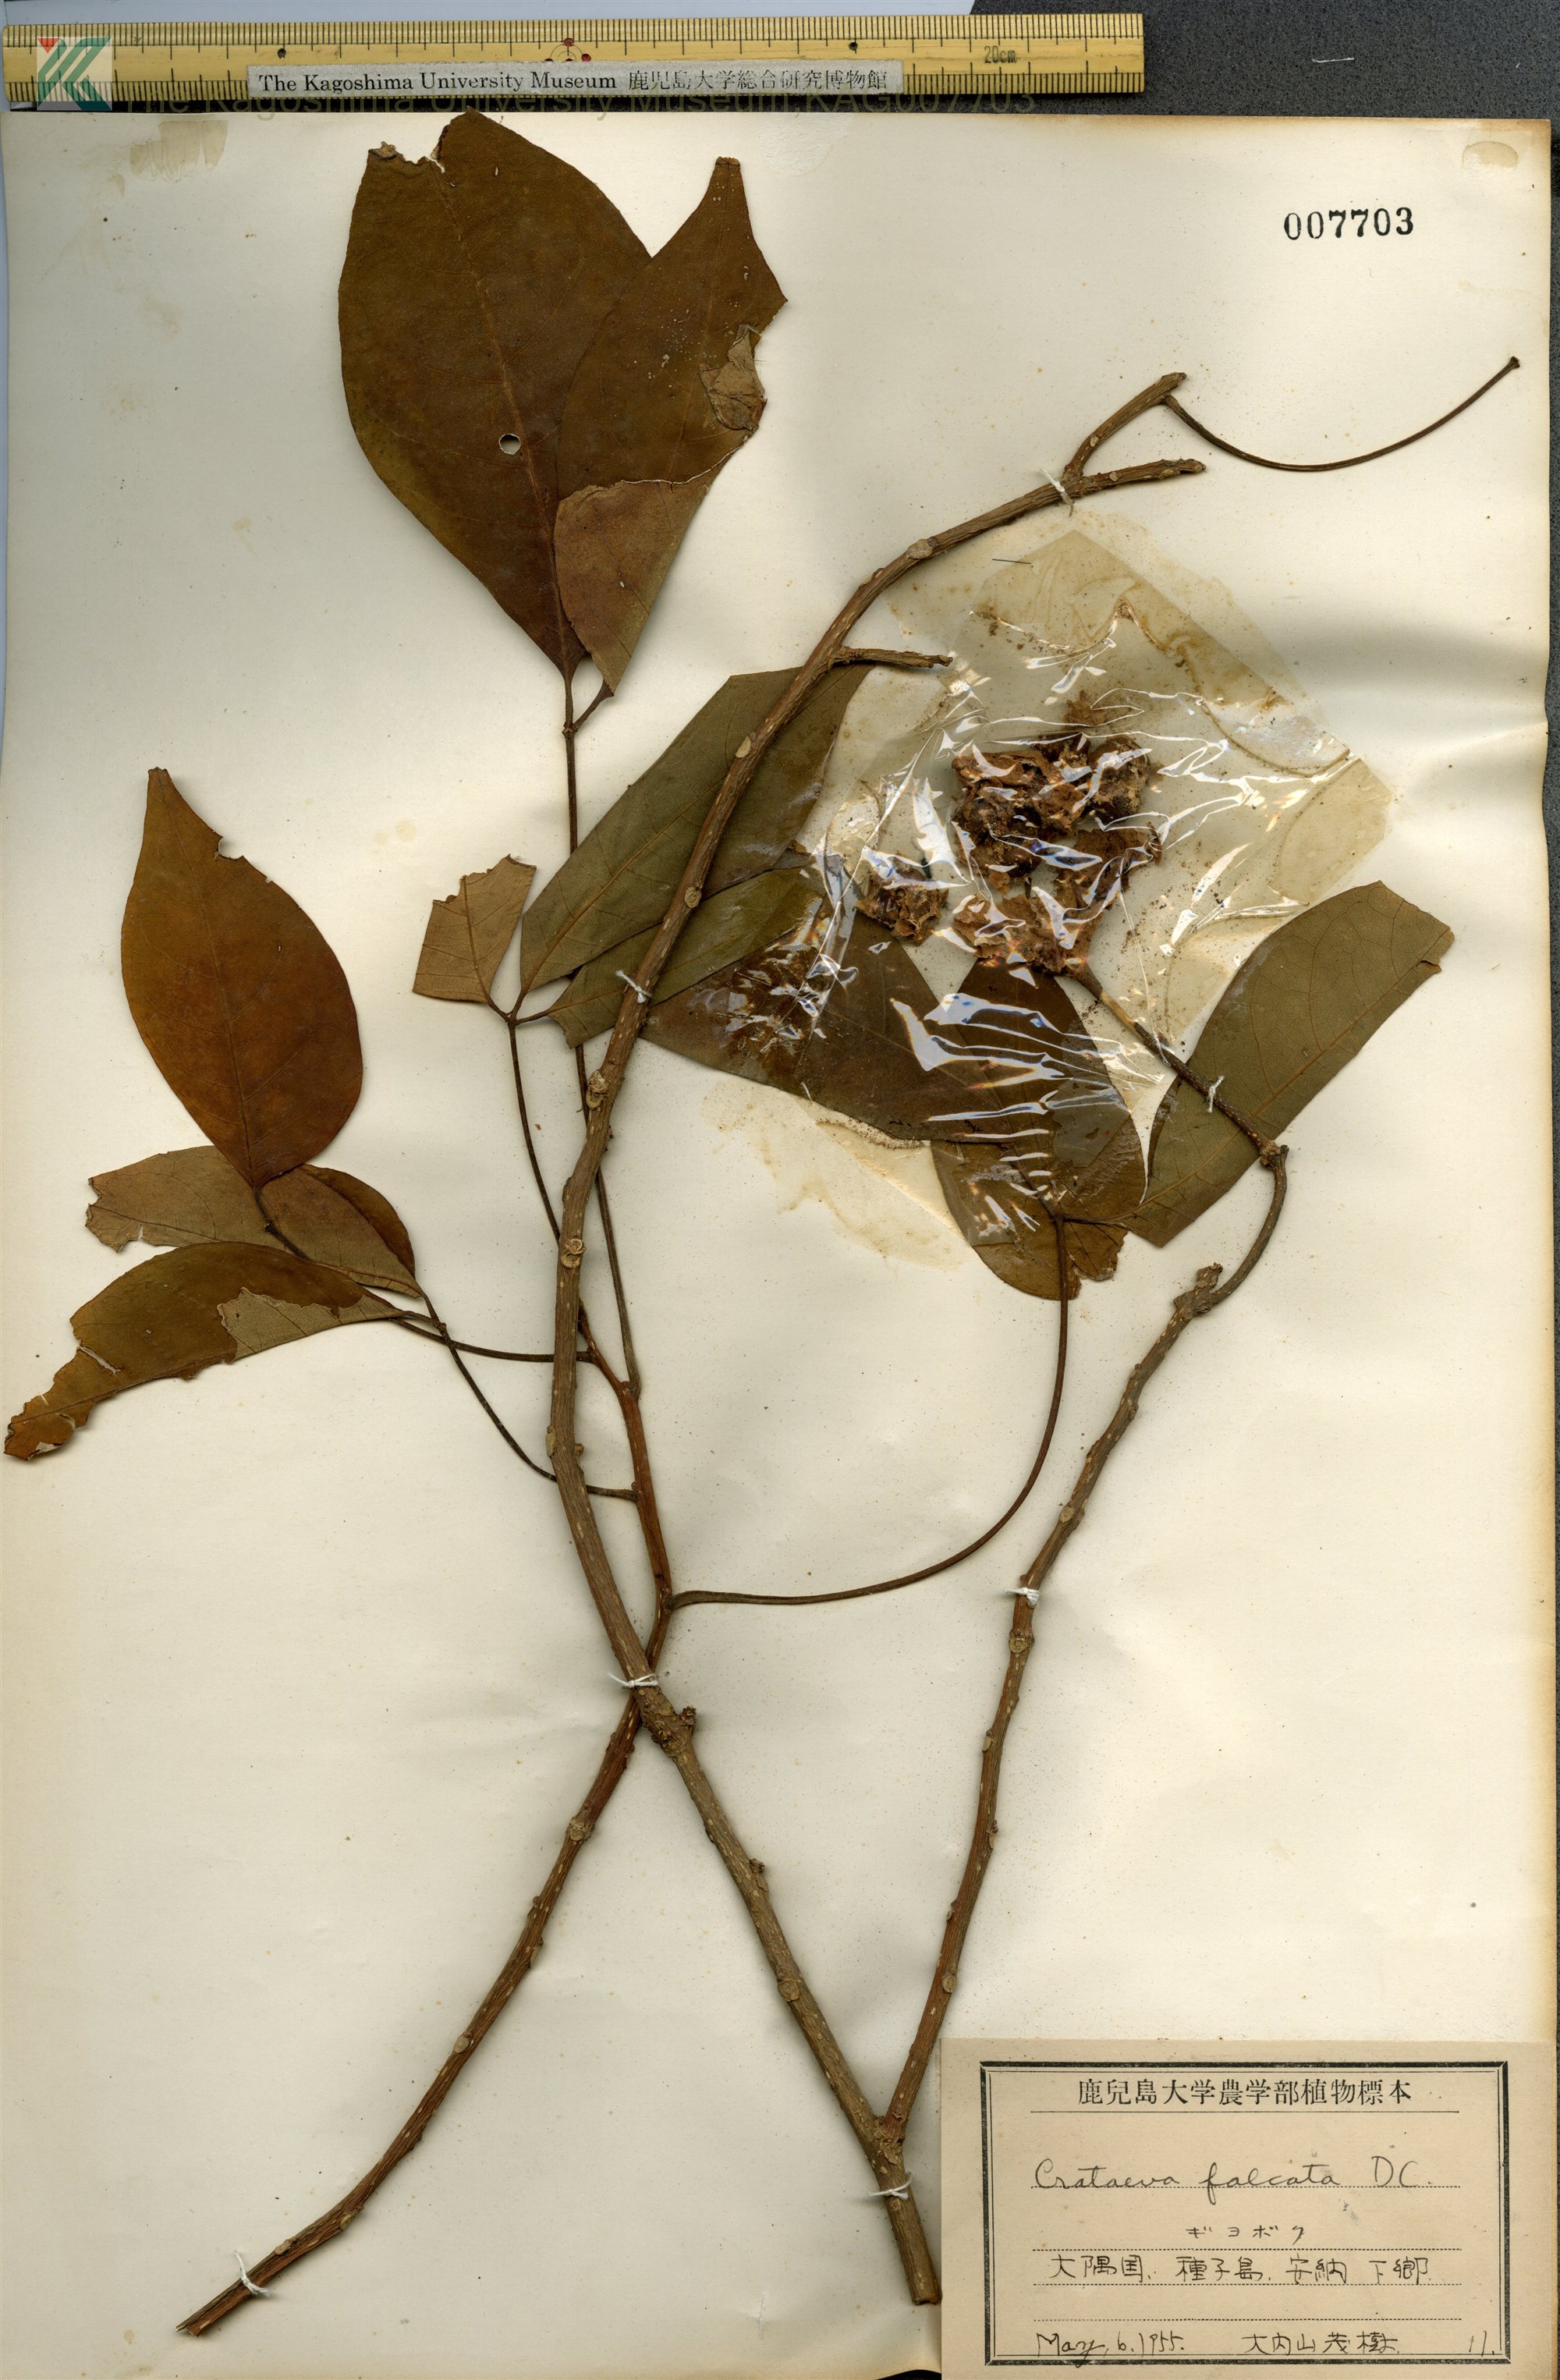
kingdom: Plantae
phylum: Tracheophyta
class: Magnoliopsida
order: Brassicales
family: Capparaceae
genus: Crateva
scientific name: Crateva formosensis
